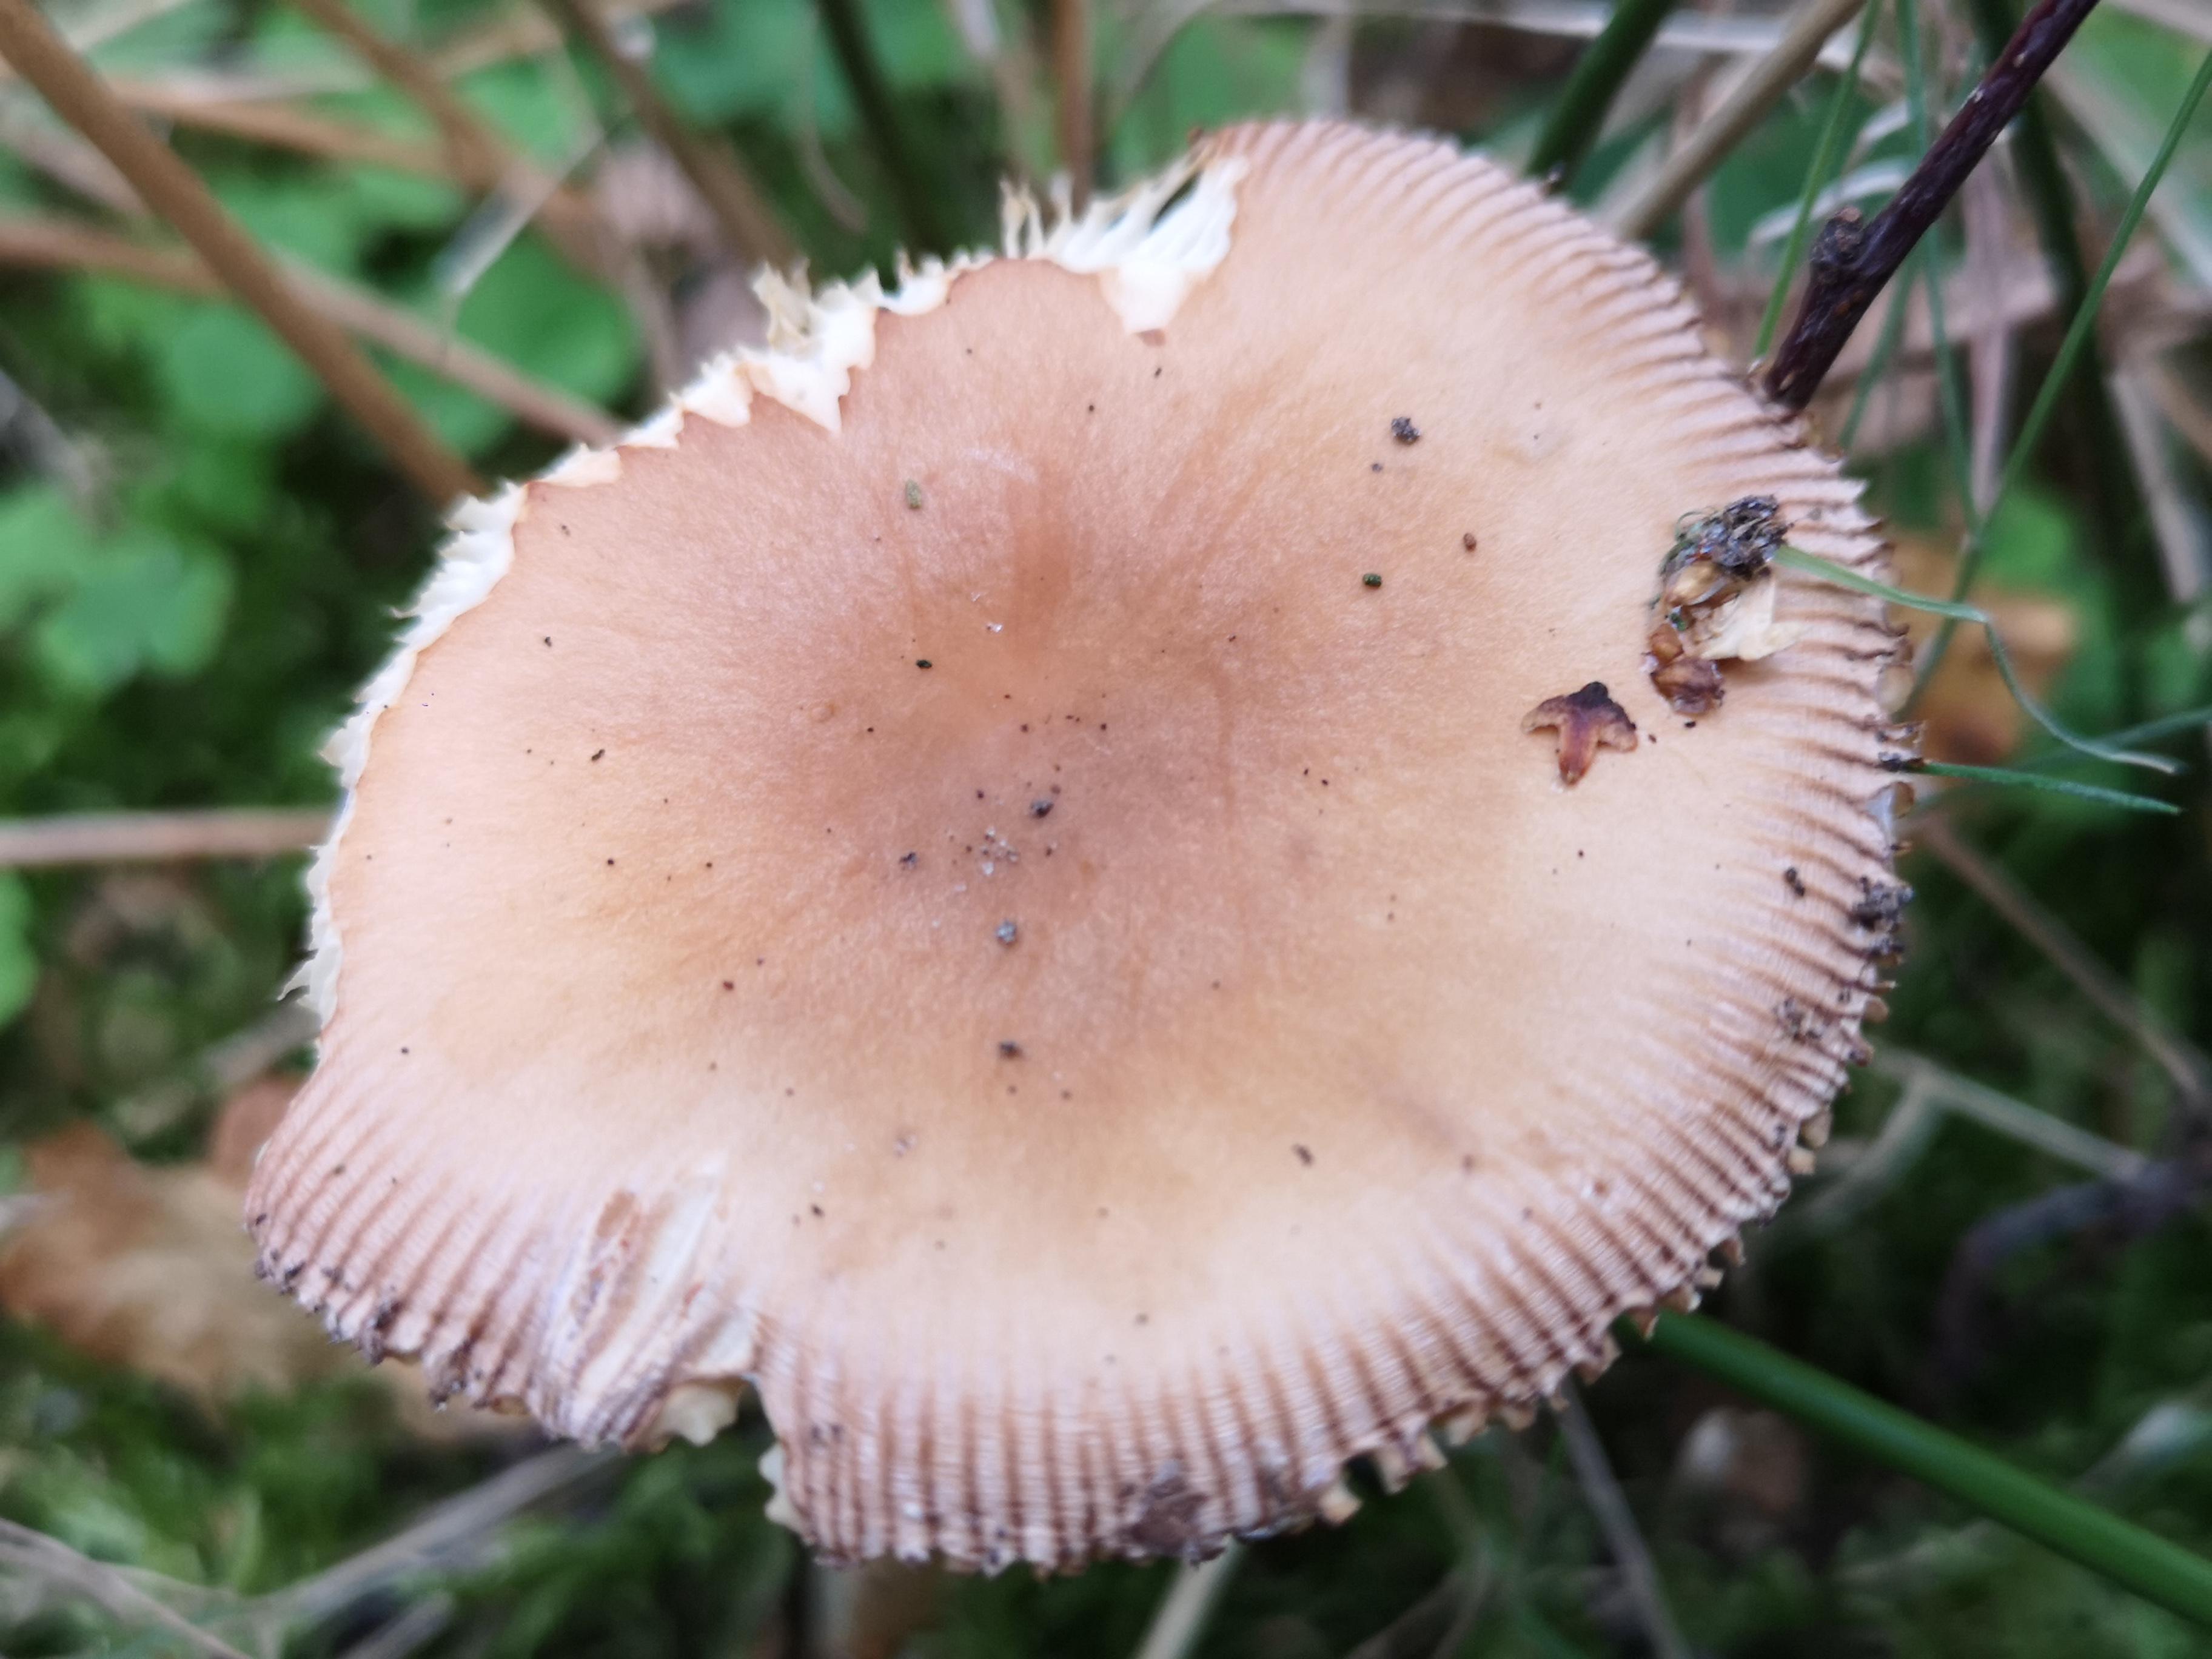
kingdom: Fungi
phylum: Basidiomycota
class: Agaricomycetes
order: Agaricales
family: Amanitaceae
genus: Amanita
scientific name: Amanita fulva
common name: brun kam-fluesvamp
